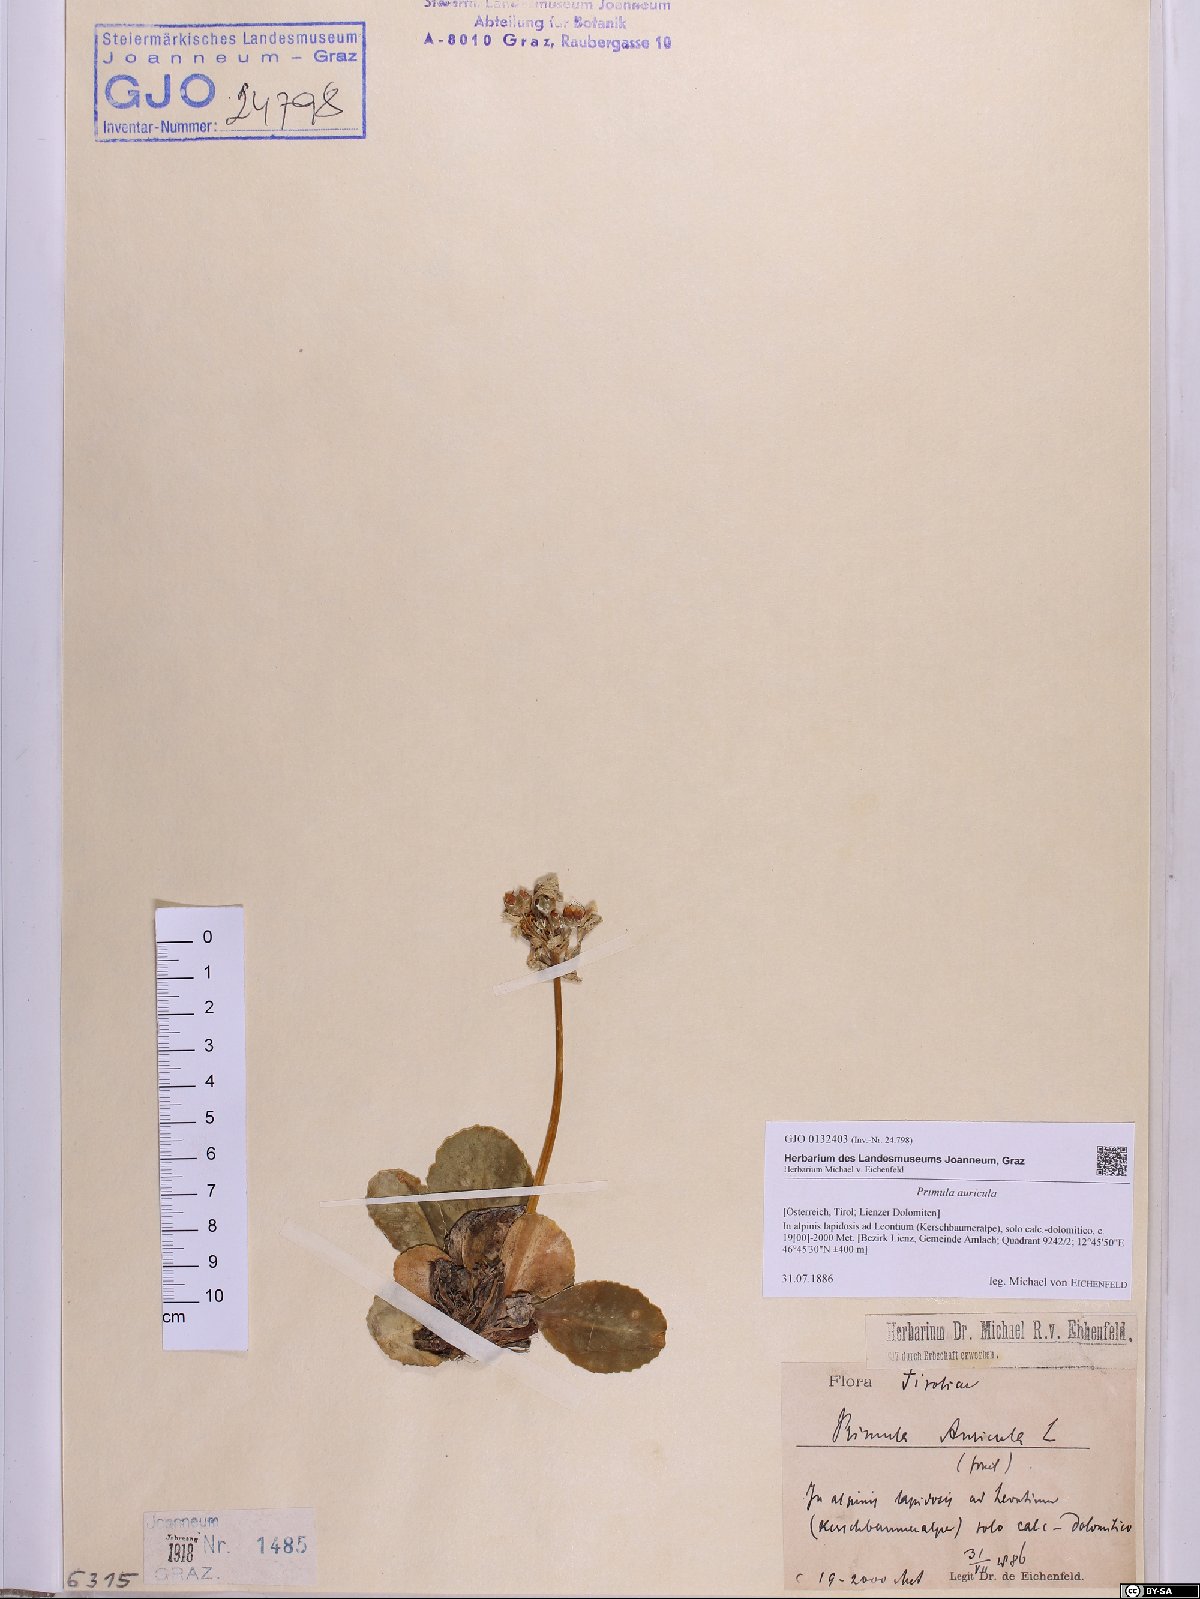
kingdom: Plantae
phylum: Tracheophyta
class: Magnoliopsida
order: Ericales
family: Primulaceae
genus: Primula
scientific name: Primula auricula
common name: Auricula
